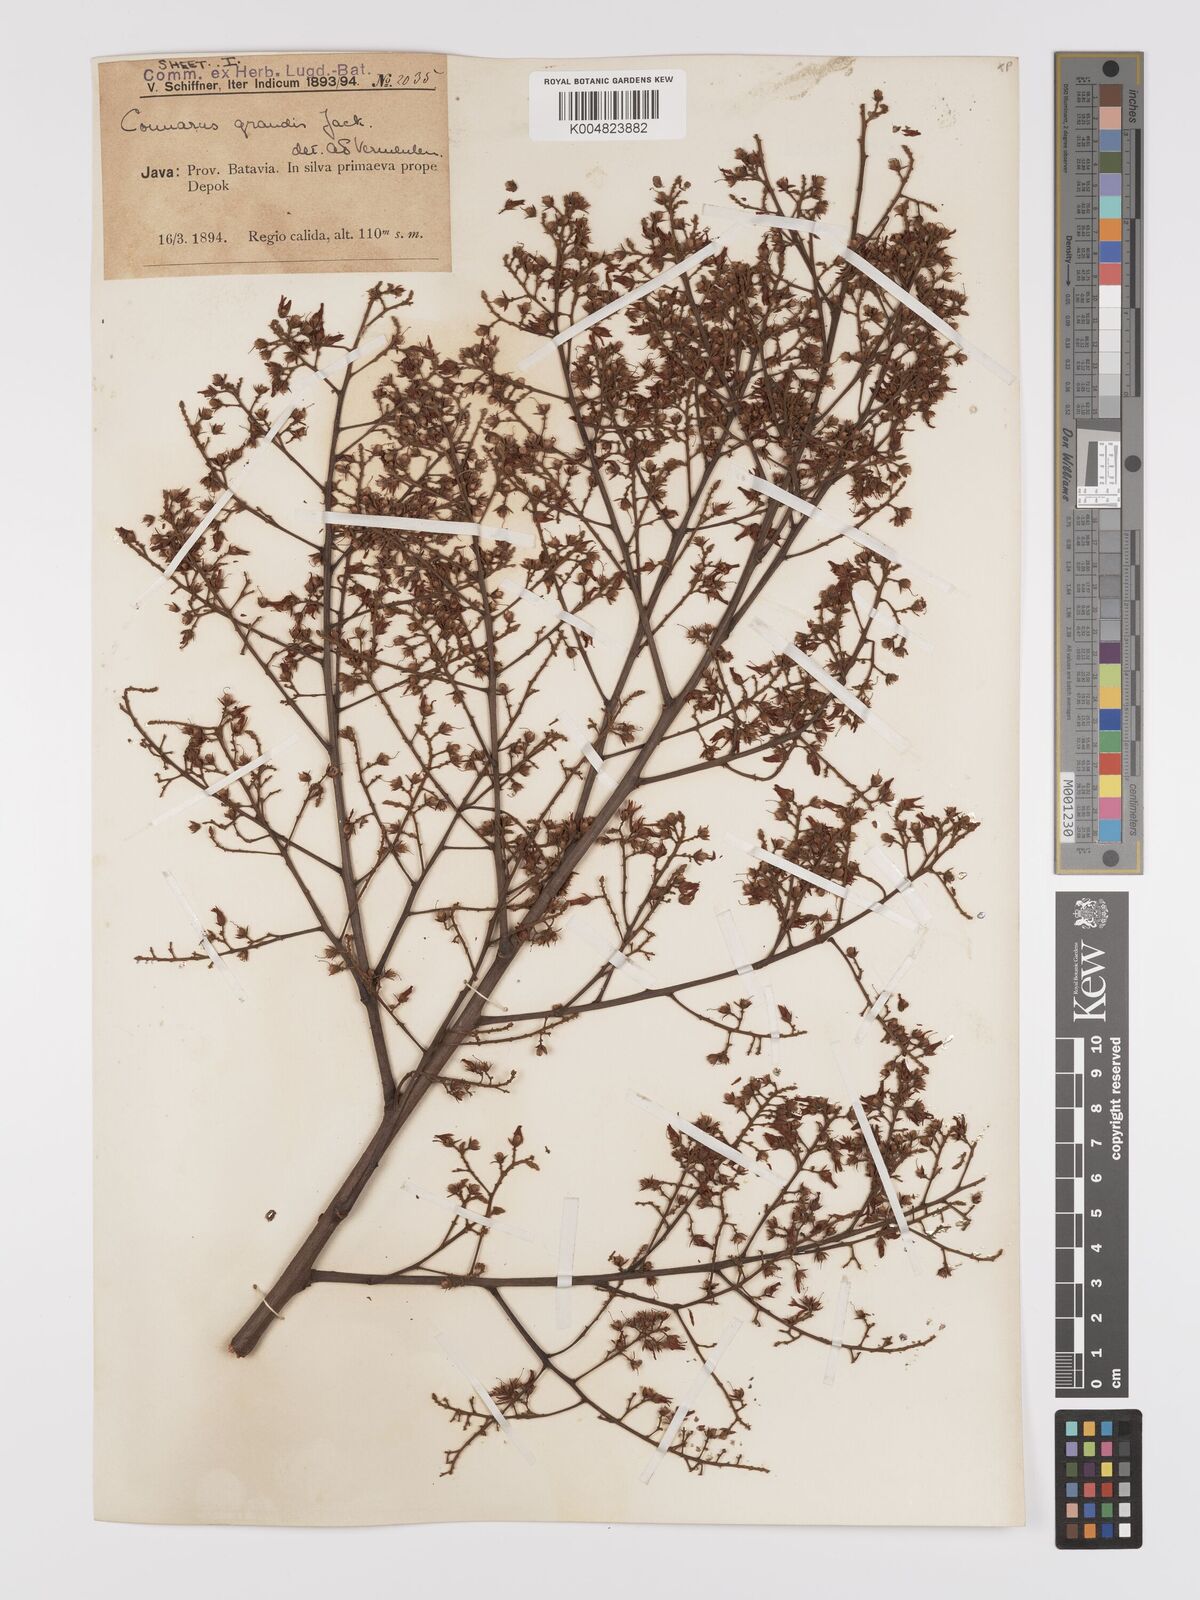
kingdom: Plantae
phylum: Tracheophyta
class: Magnoliopsida
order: Oxalidales
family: Connaraceae
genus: Connarus
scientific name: Connarus grandis
